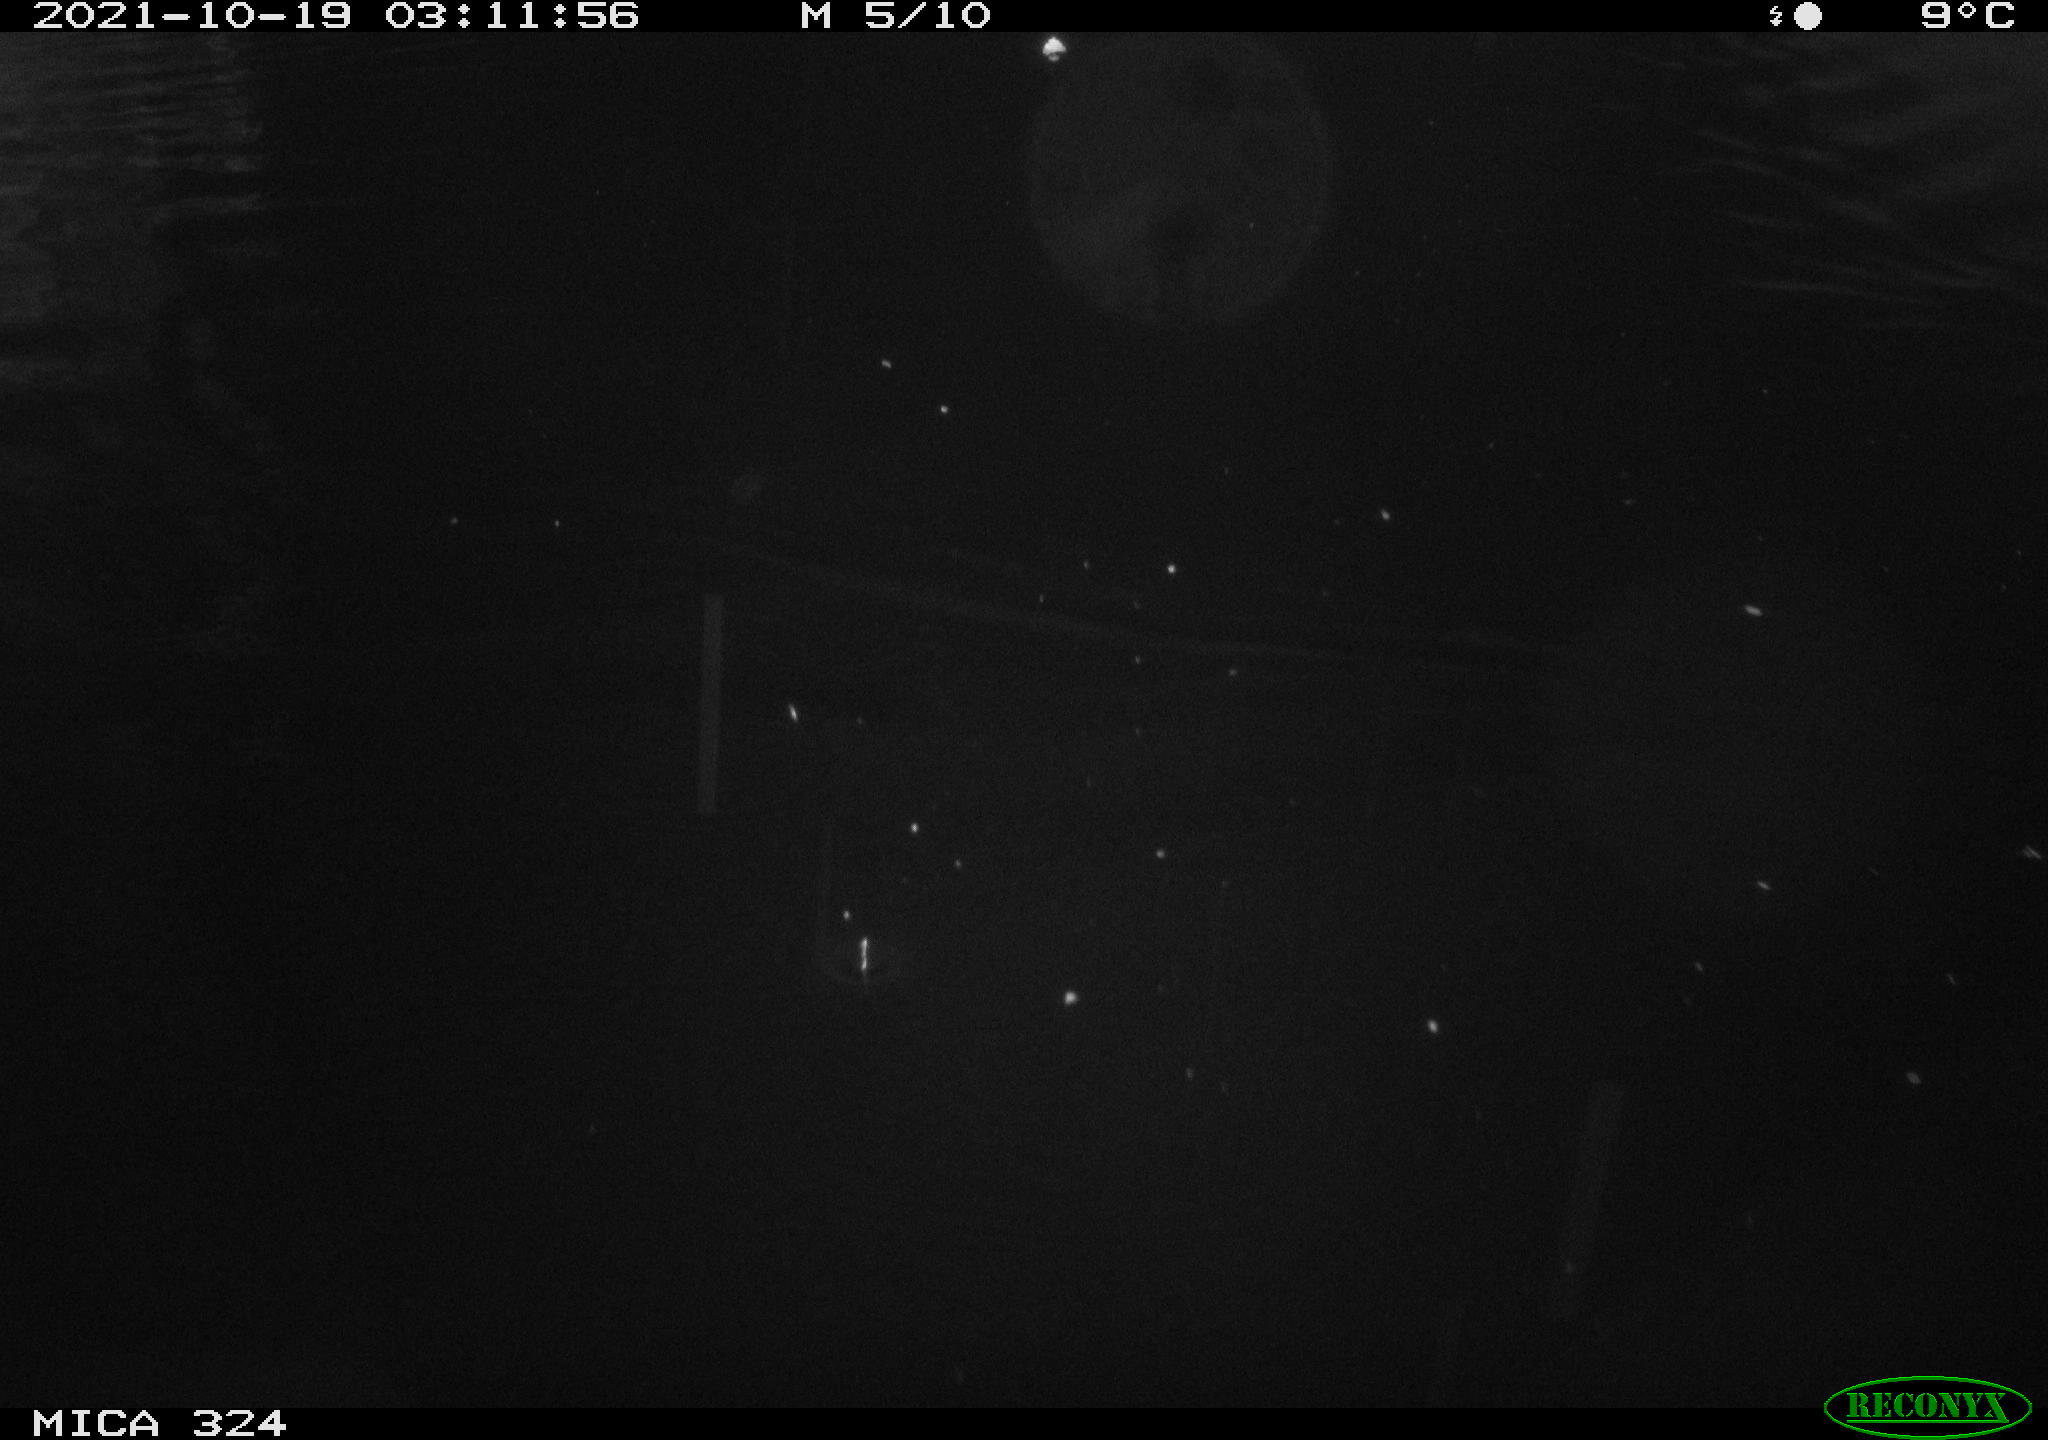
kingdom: Animalia
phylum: Chordata
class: Mammalia
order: Rodentia
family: Cricetidae
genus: Ondatra
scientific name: Ondatra zibethicus
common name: Muskrat
